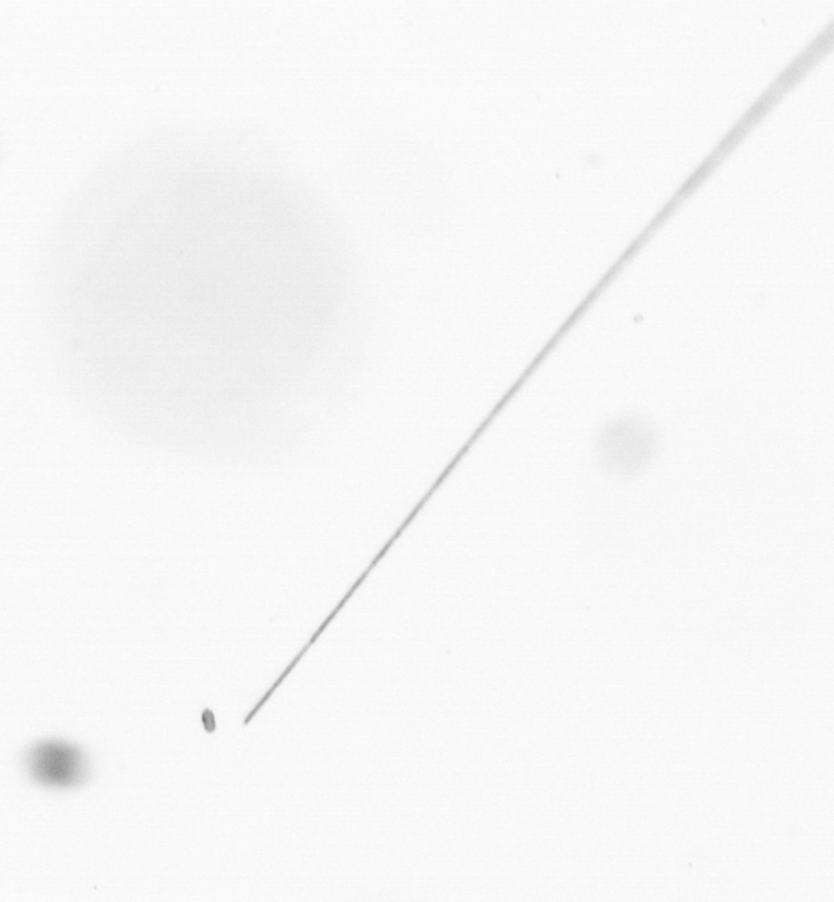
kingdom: Chromista
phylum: Ochrophyta
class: Bacillariophyceae
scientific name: Bacillariophyceae
